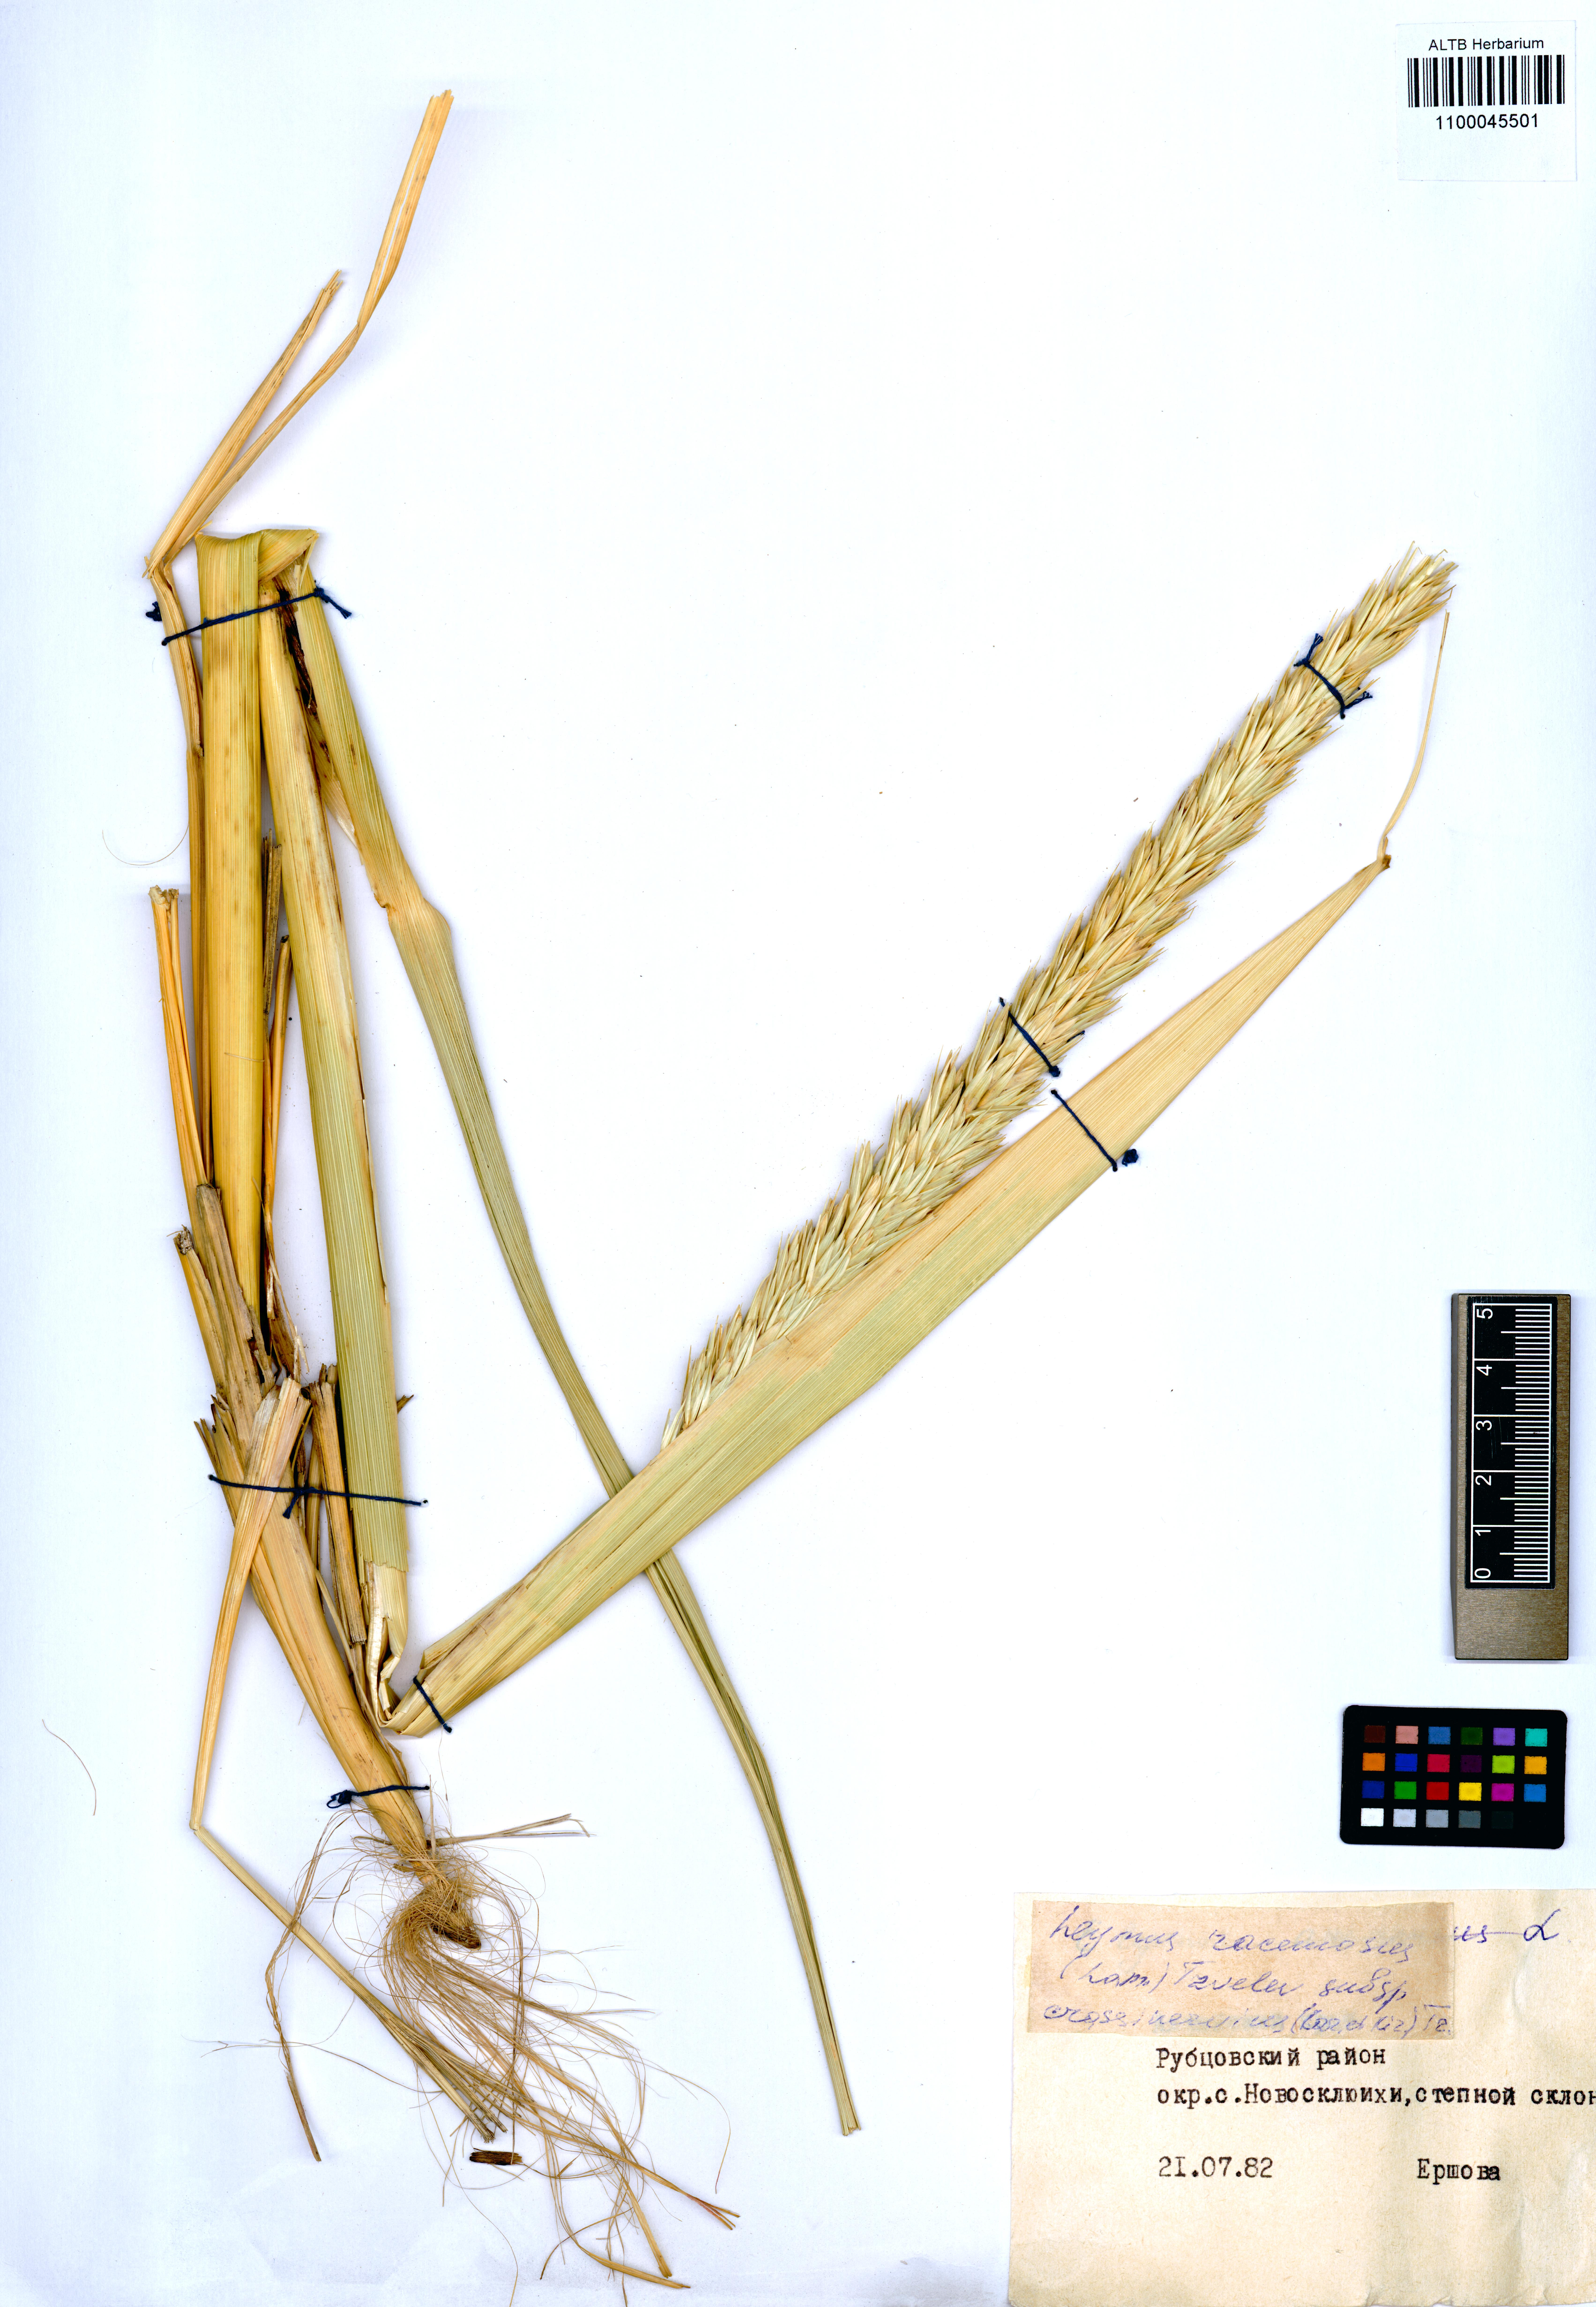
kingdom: Plantae
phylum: Tracheophyta
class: Liliopsida
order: Poales
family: Poaceae
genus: Leymus
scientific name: Leymus racemosus
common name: Mammoth wildrye
